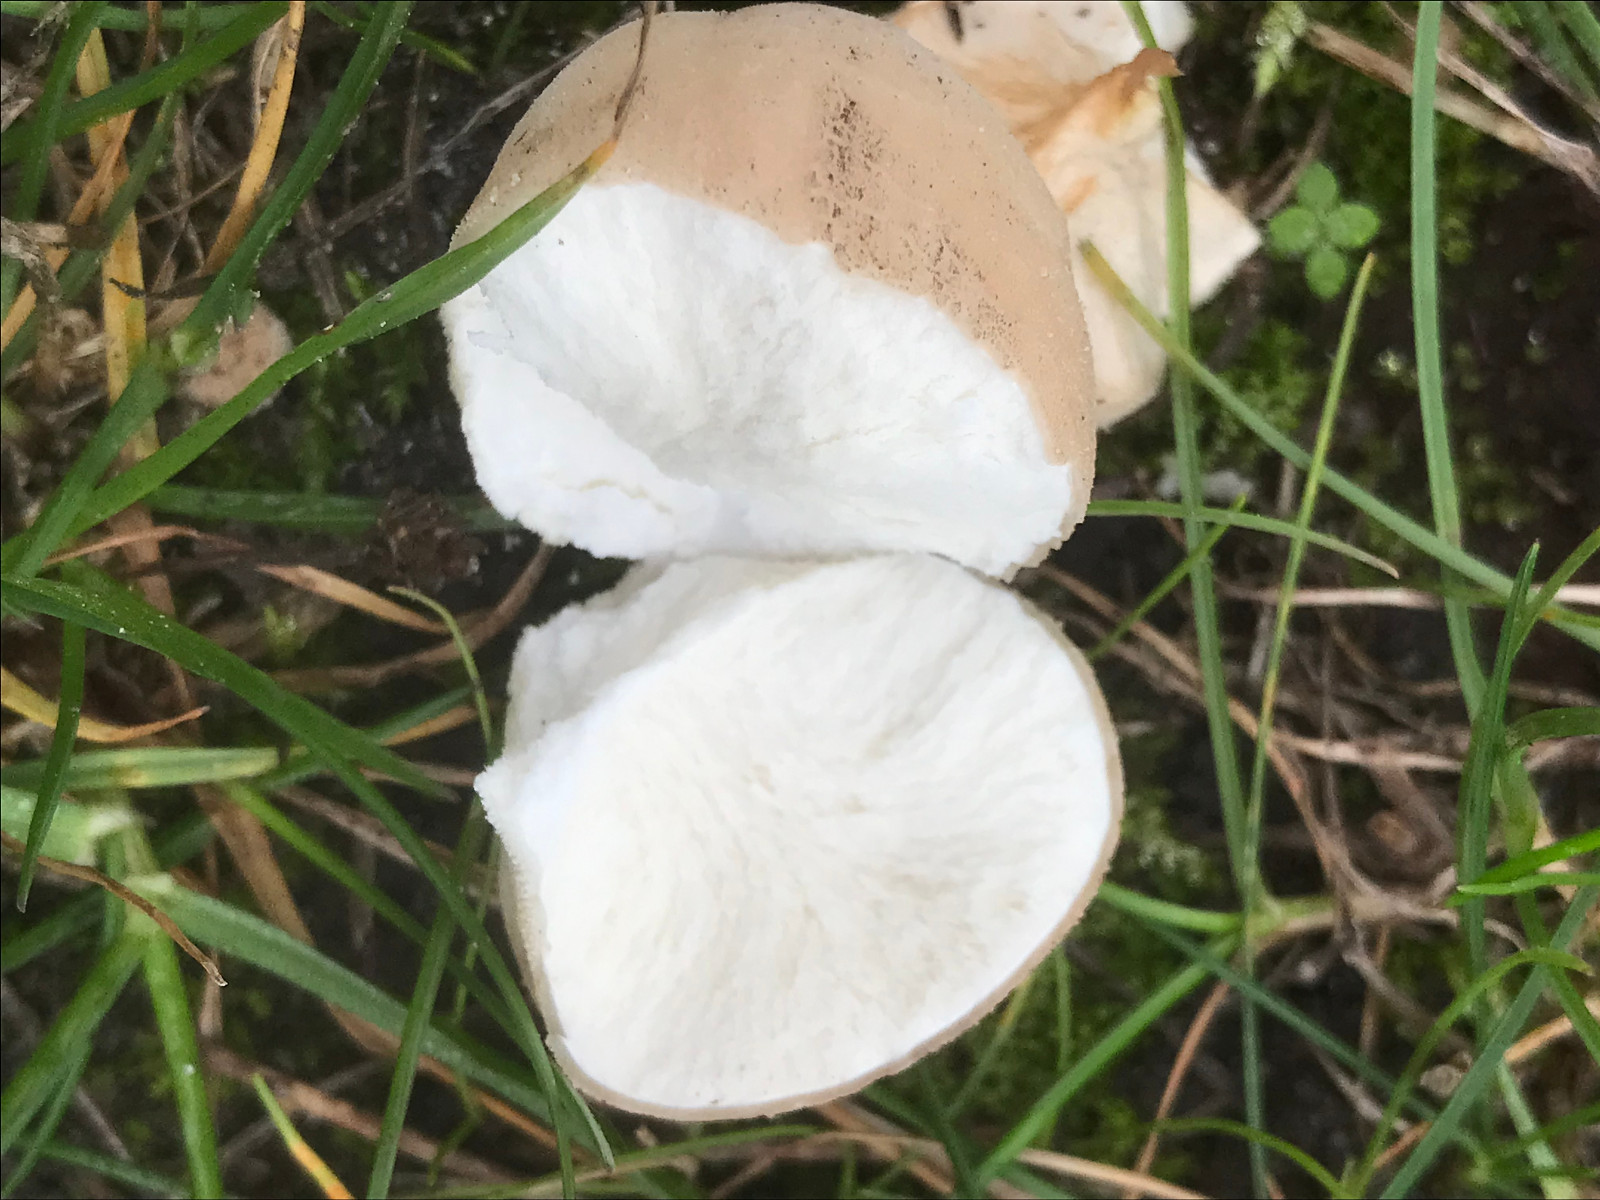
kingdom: Fungi
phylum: Basidiomycota
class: Agaricomycetes
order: Agaricales
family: Agaricaceae
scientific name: Agaricaceae
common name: champignonfamilien
